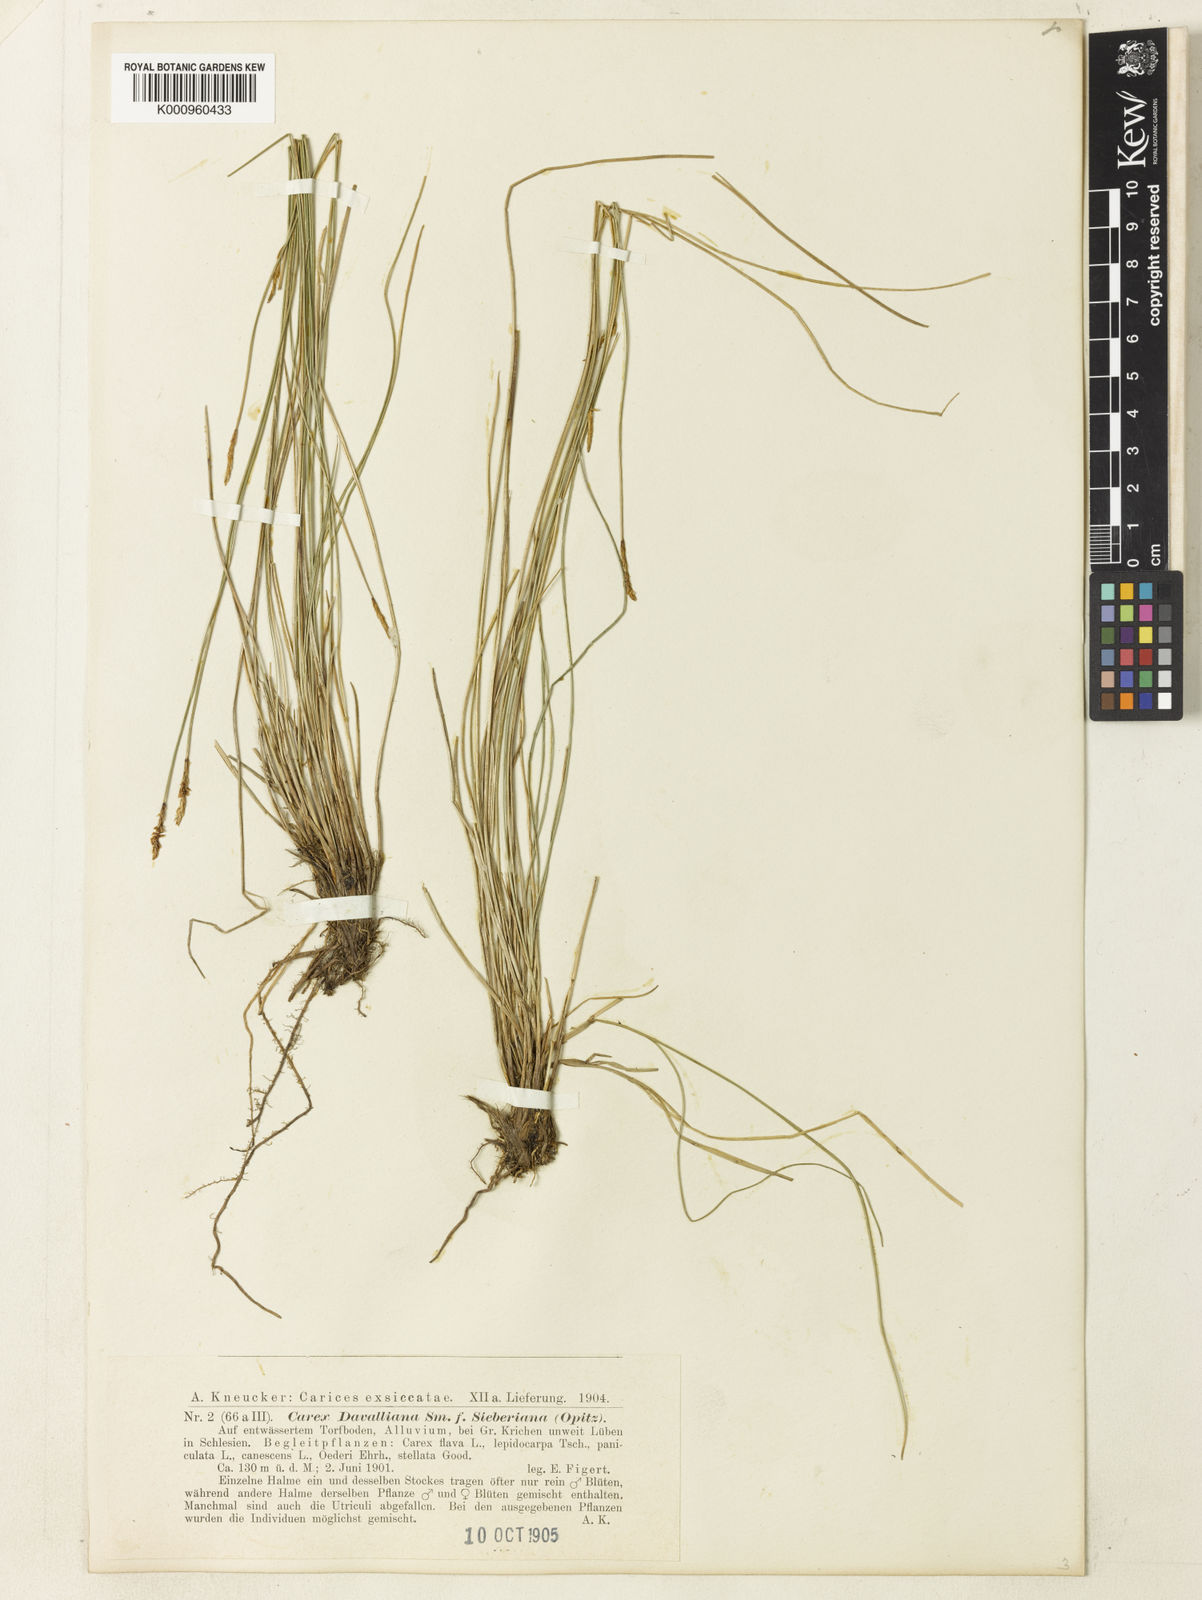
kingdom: Plantae
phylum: Tracheophyta
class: Liliopsida
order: Poales
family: Cyperaceae
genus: Carex
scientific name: Carex davalliana
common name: Davall's sedge
